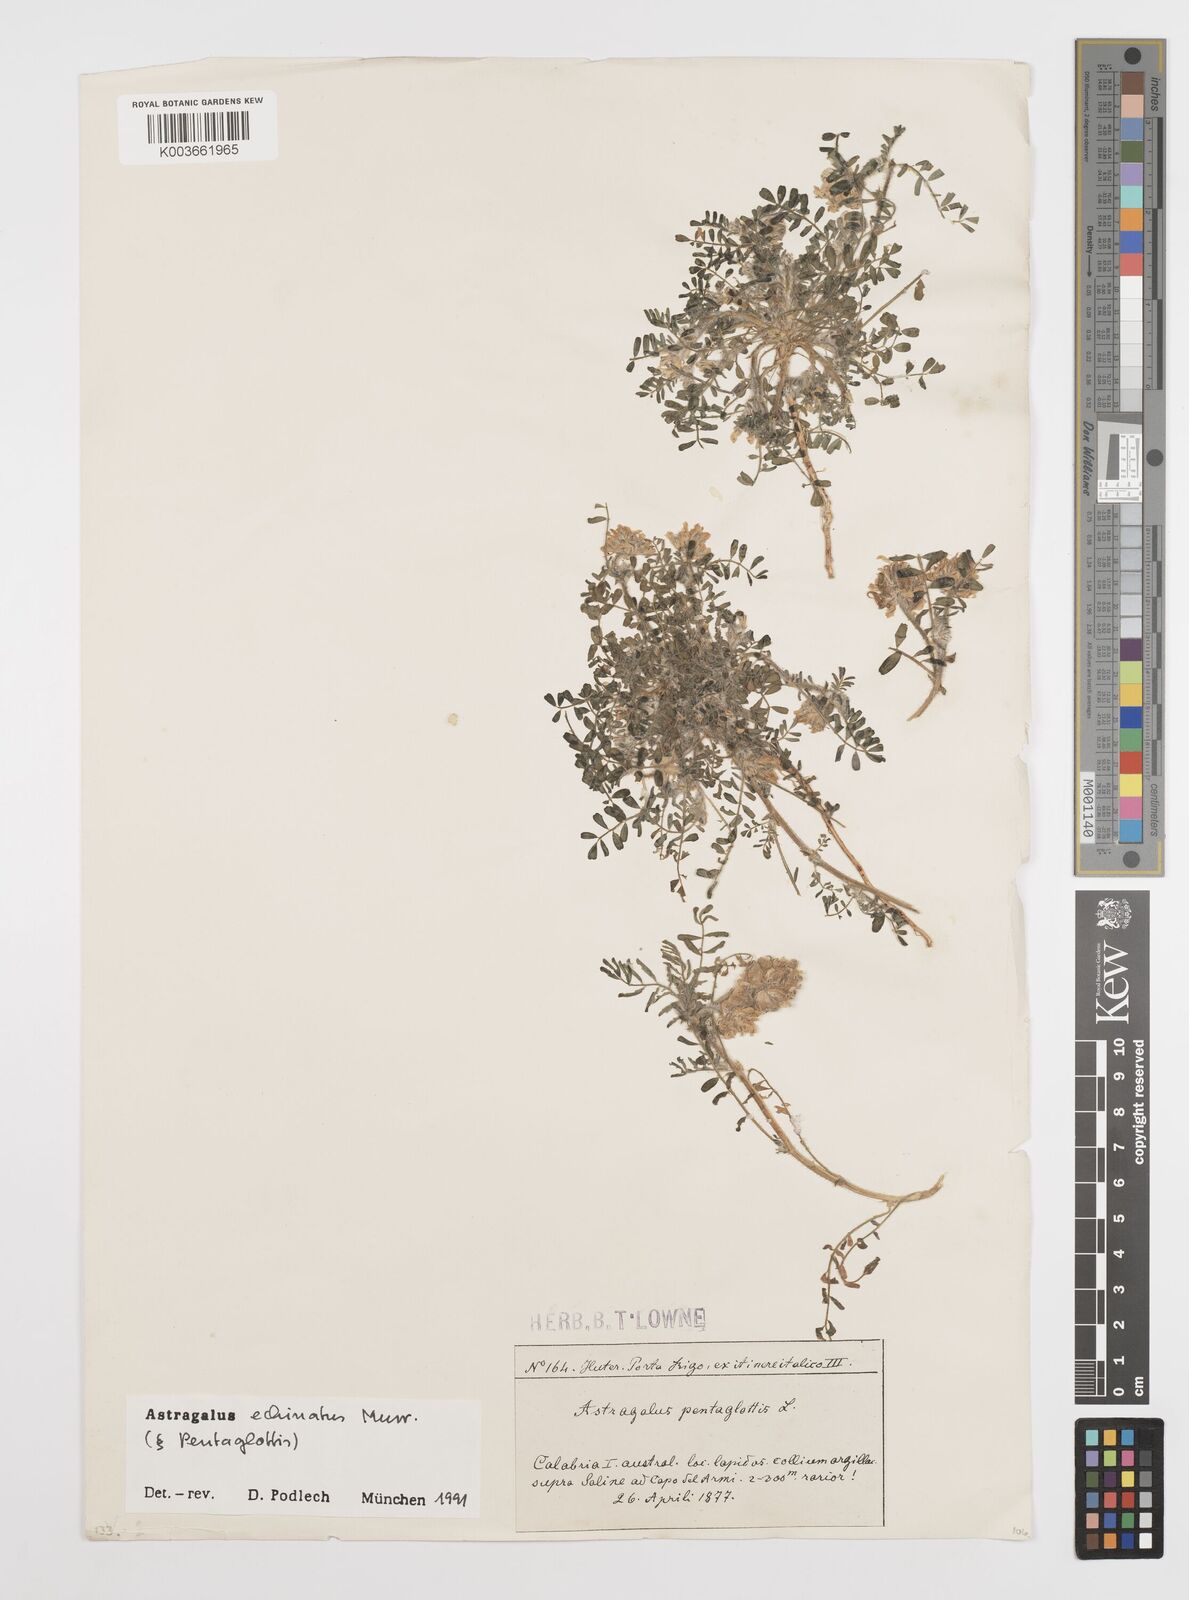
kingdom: Plantae
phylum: Tracheophyta
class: Magnoliopsida
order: Fabales
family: Fabaceae
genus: Astragalus
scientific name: Astragalus echinatus
